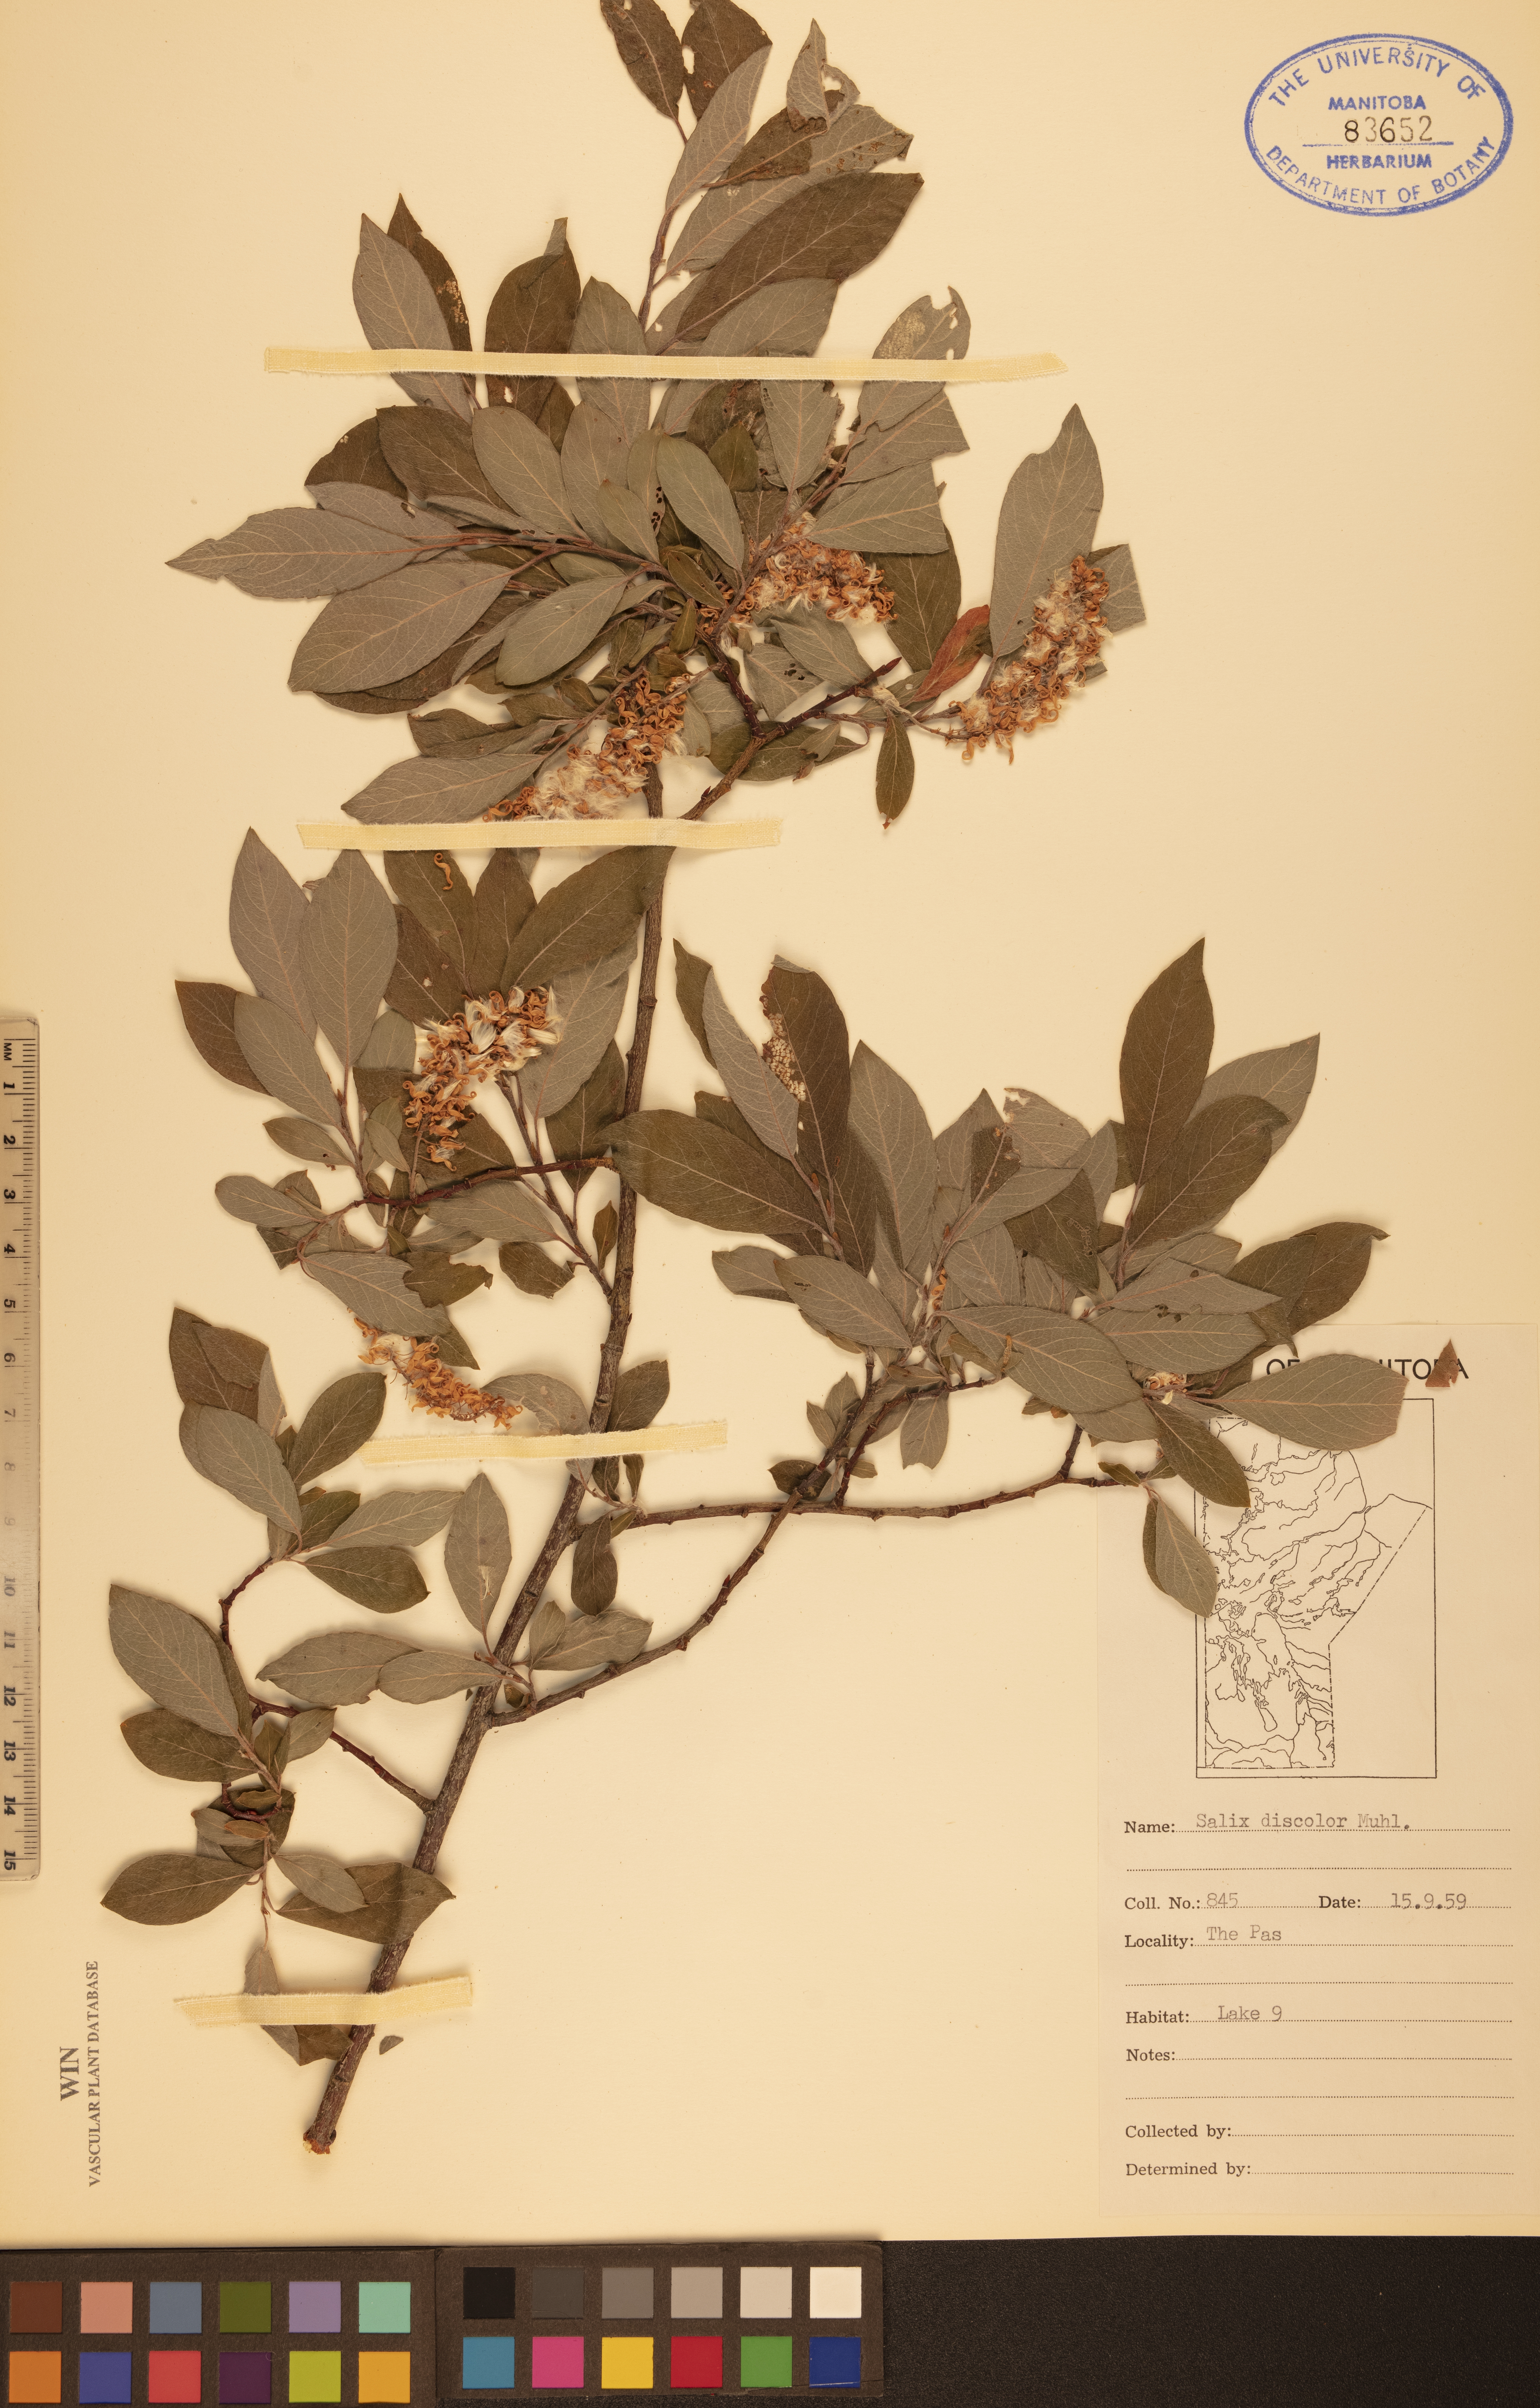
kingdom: Plantae
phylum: Tracheophyta
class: Magnoliopsida
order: Malpighiales
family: Salicaceae
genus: Salix
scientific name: Salix discolor
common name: Glaucous willow
